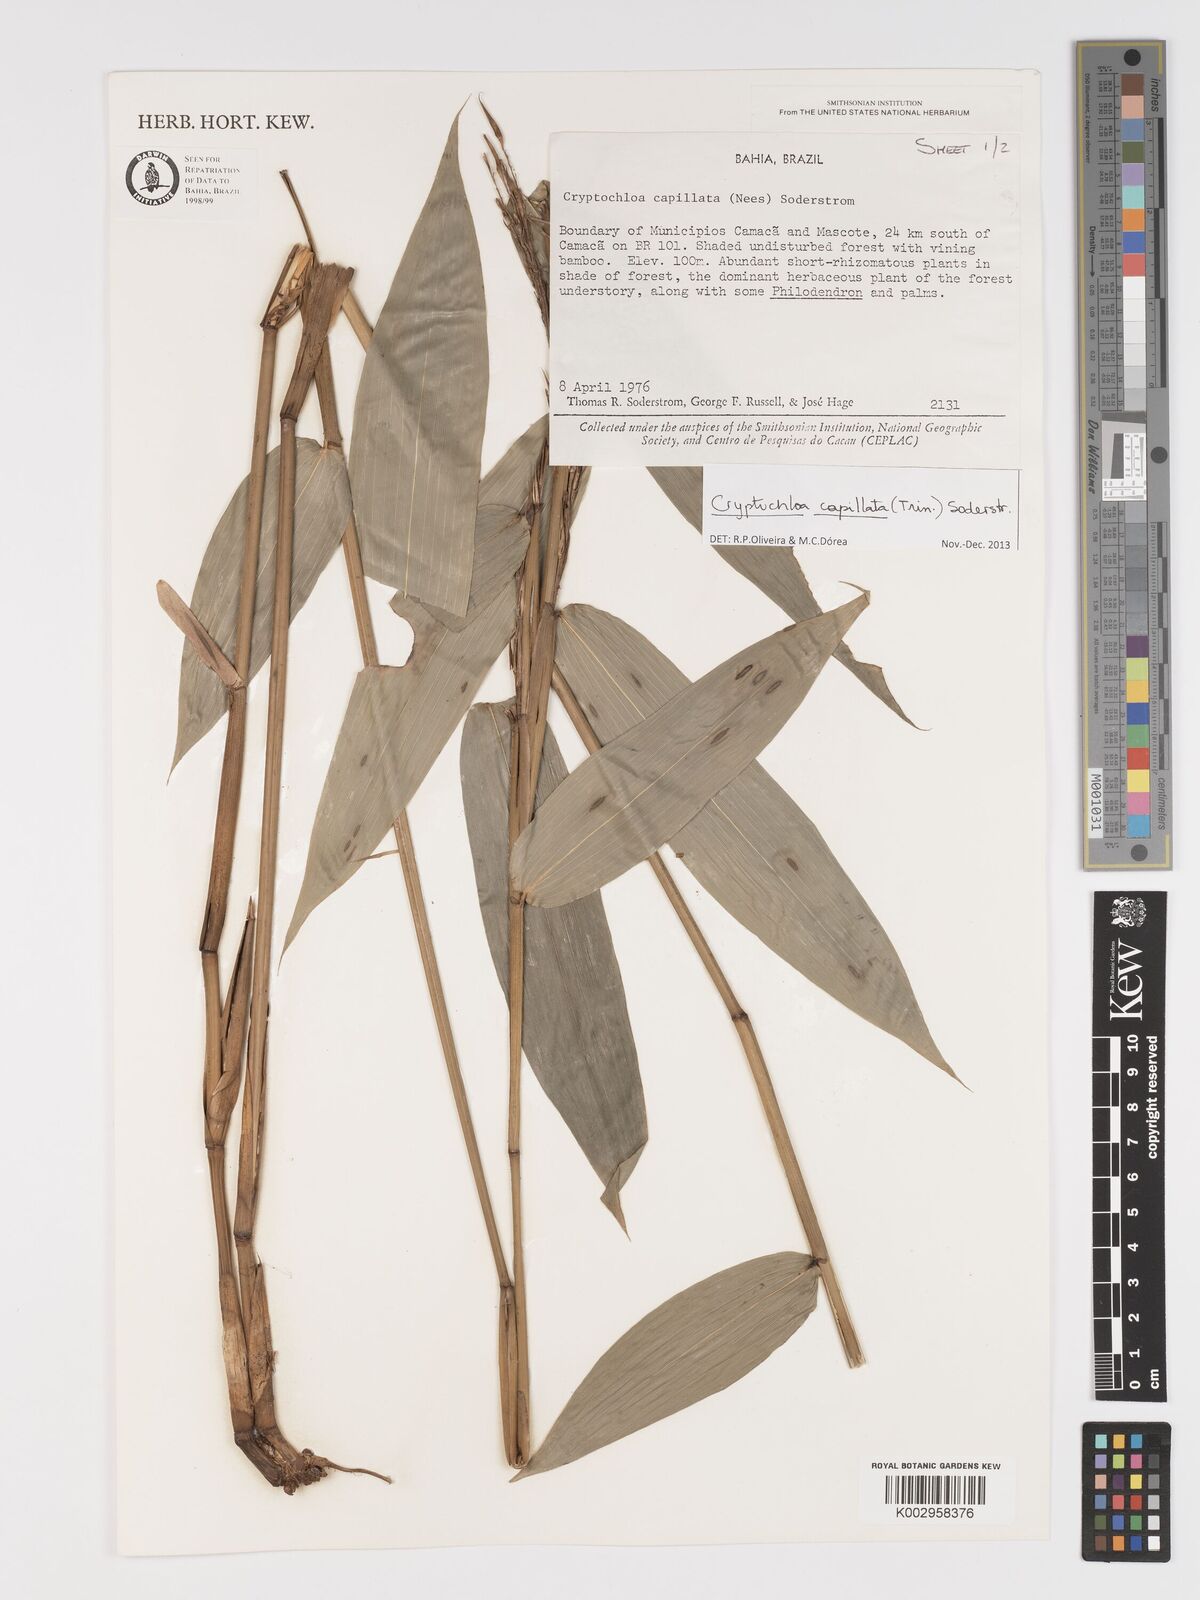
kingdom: Plantae
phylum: Tracheophyta
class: Liliopsida
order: Poales
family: Poaceae
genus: Cryptochloa
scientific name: Cryptochloa capillata
